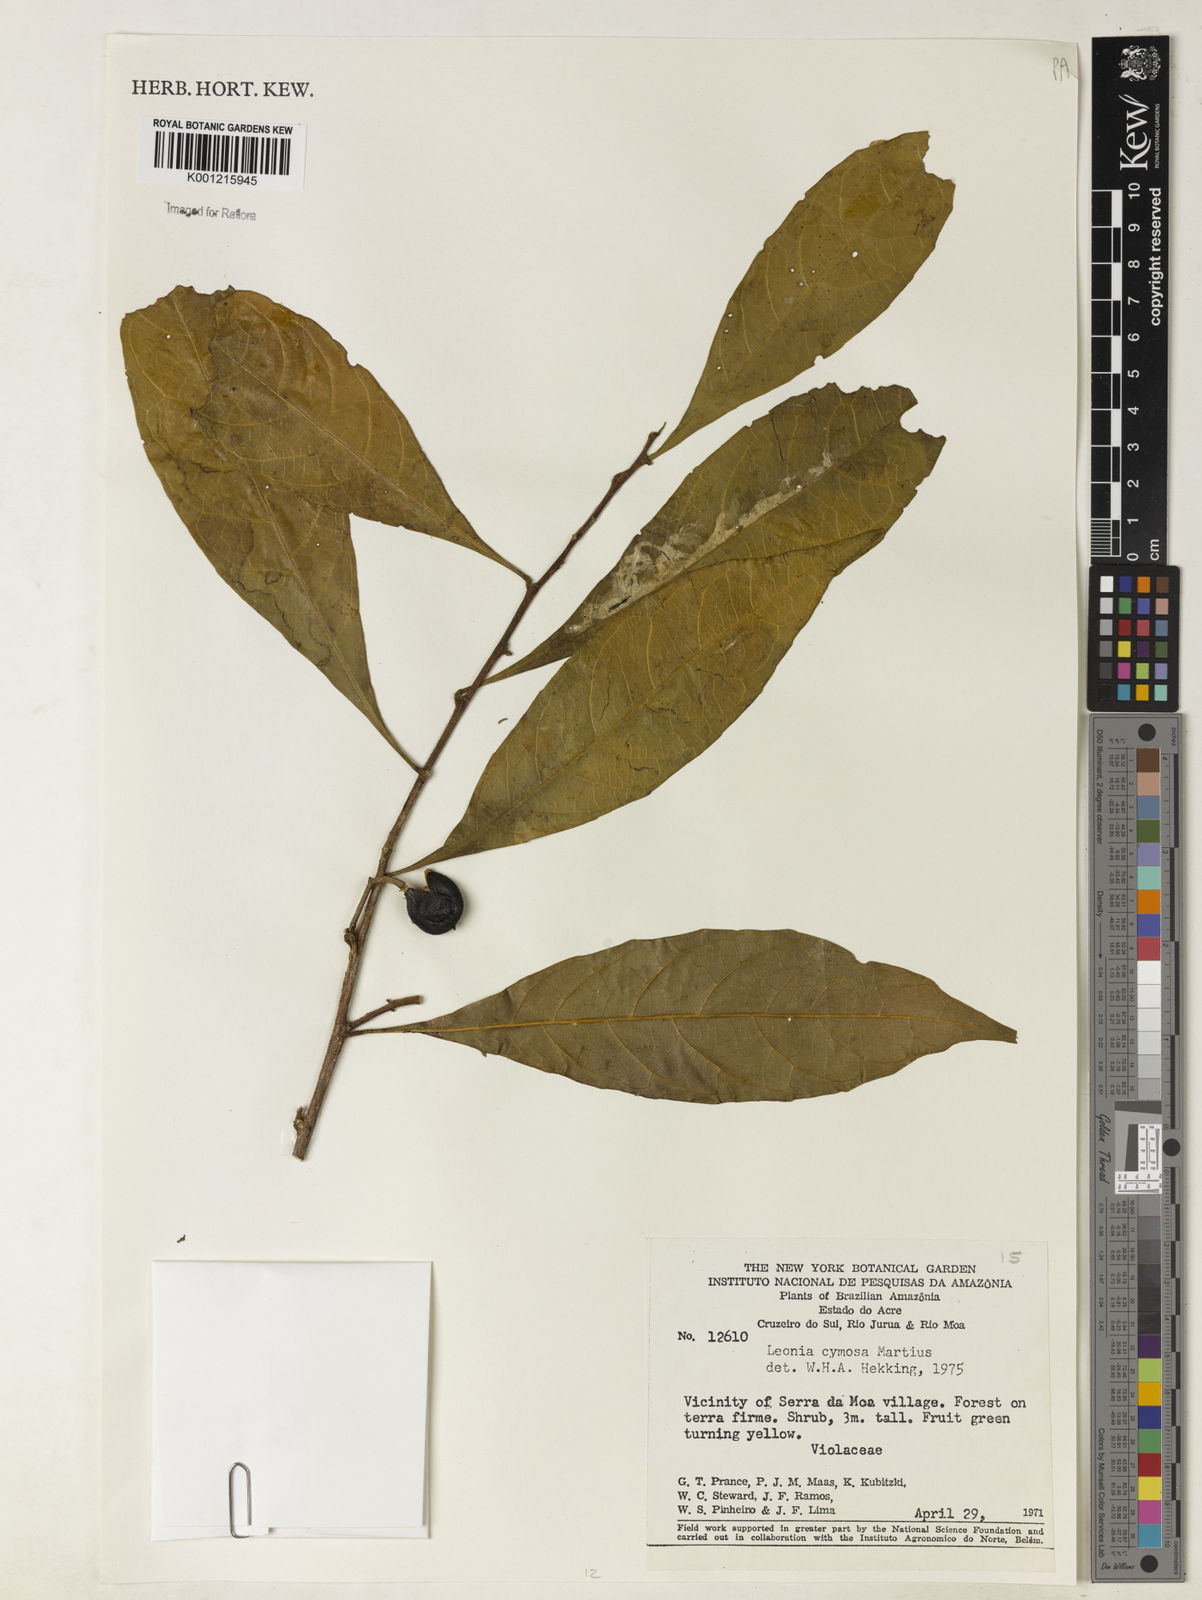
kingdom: Plantae
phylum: Tracheophyta
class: Magnoliopsida
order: Malpighiales
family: Violaceae
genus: Leonia
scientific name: Leonia cymosa
